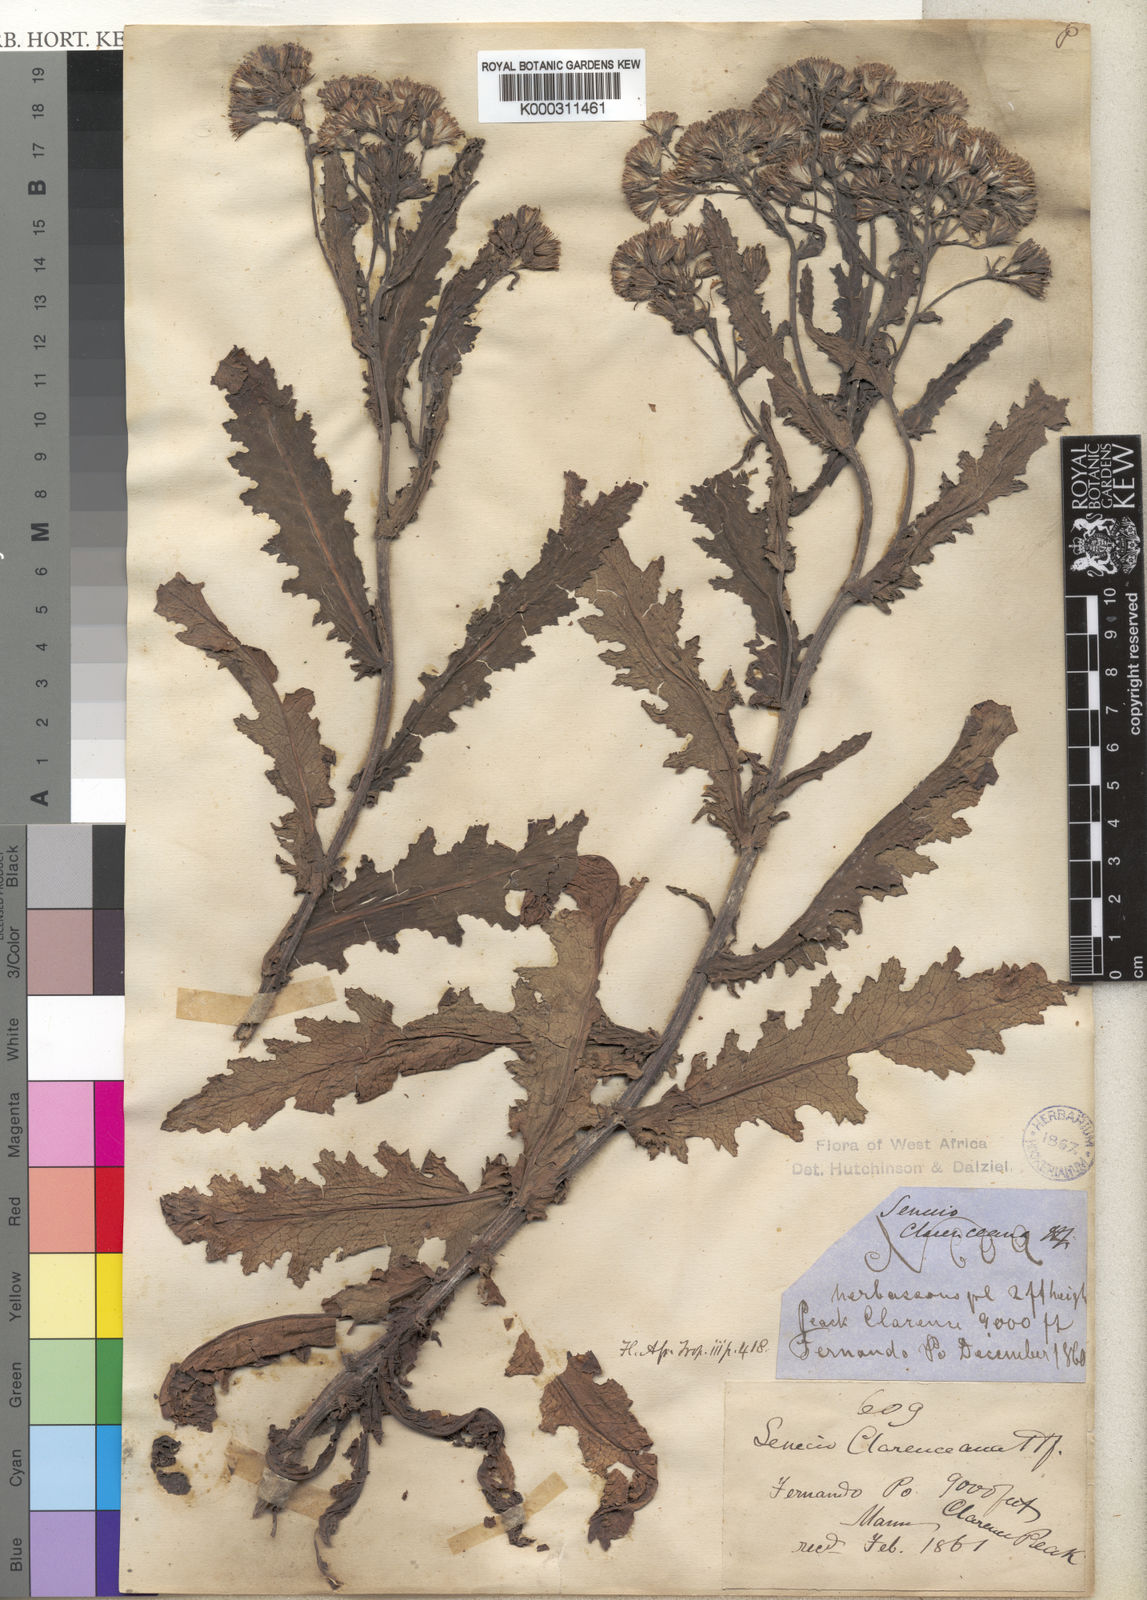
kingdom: Plantae
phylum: Tracheophyta
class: Magnoliopsida
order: Asterales
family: Asteraceae
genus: Senecio
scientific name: Senecio
